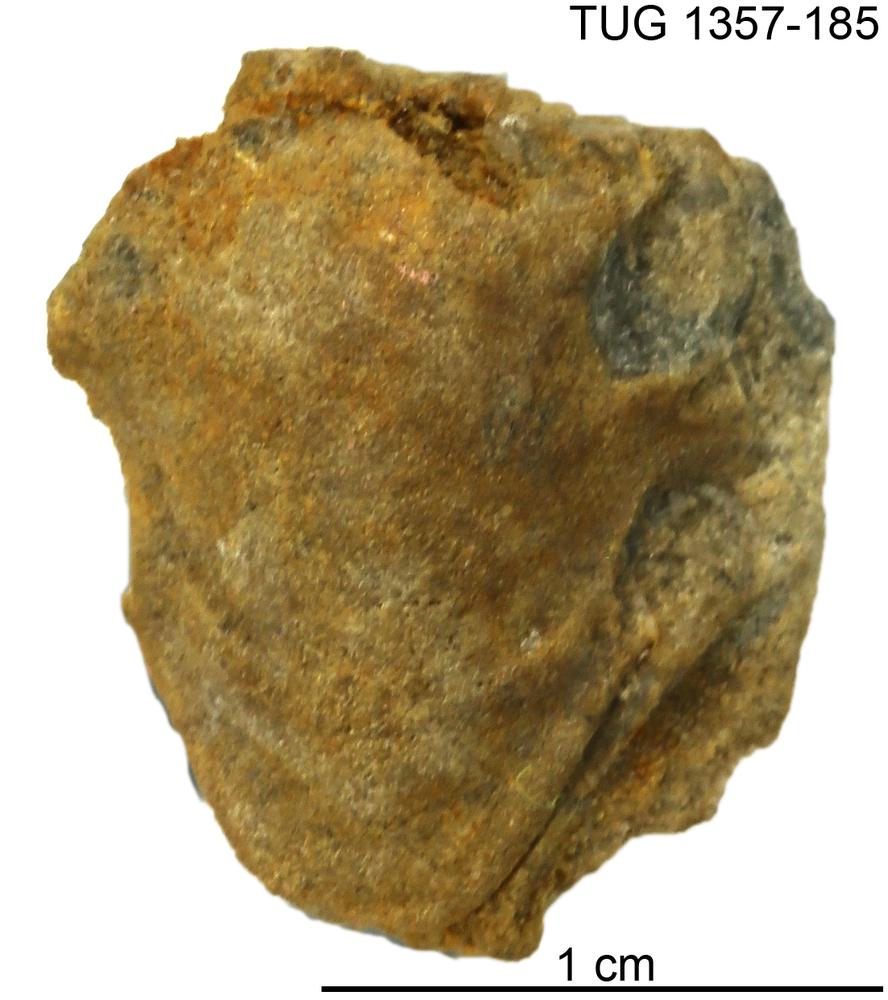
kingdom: Animalia
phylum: Arthropoda
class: Trilobita
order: Phacopida
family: Pterygometopidae
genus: Chasmops
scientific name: Chasmops macrourus
